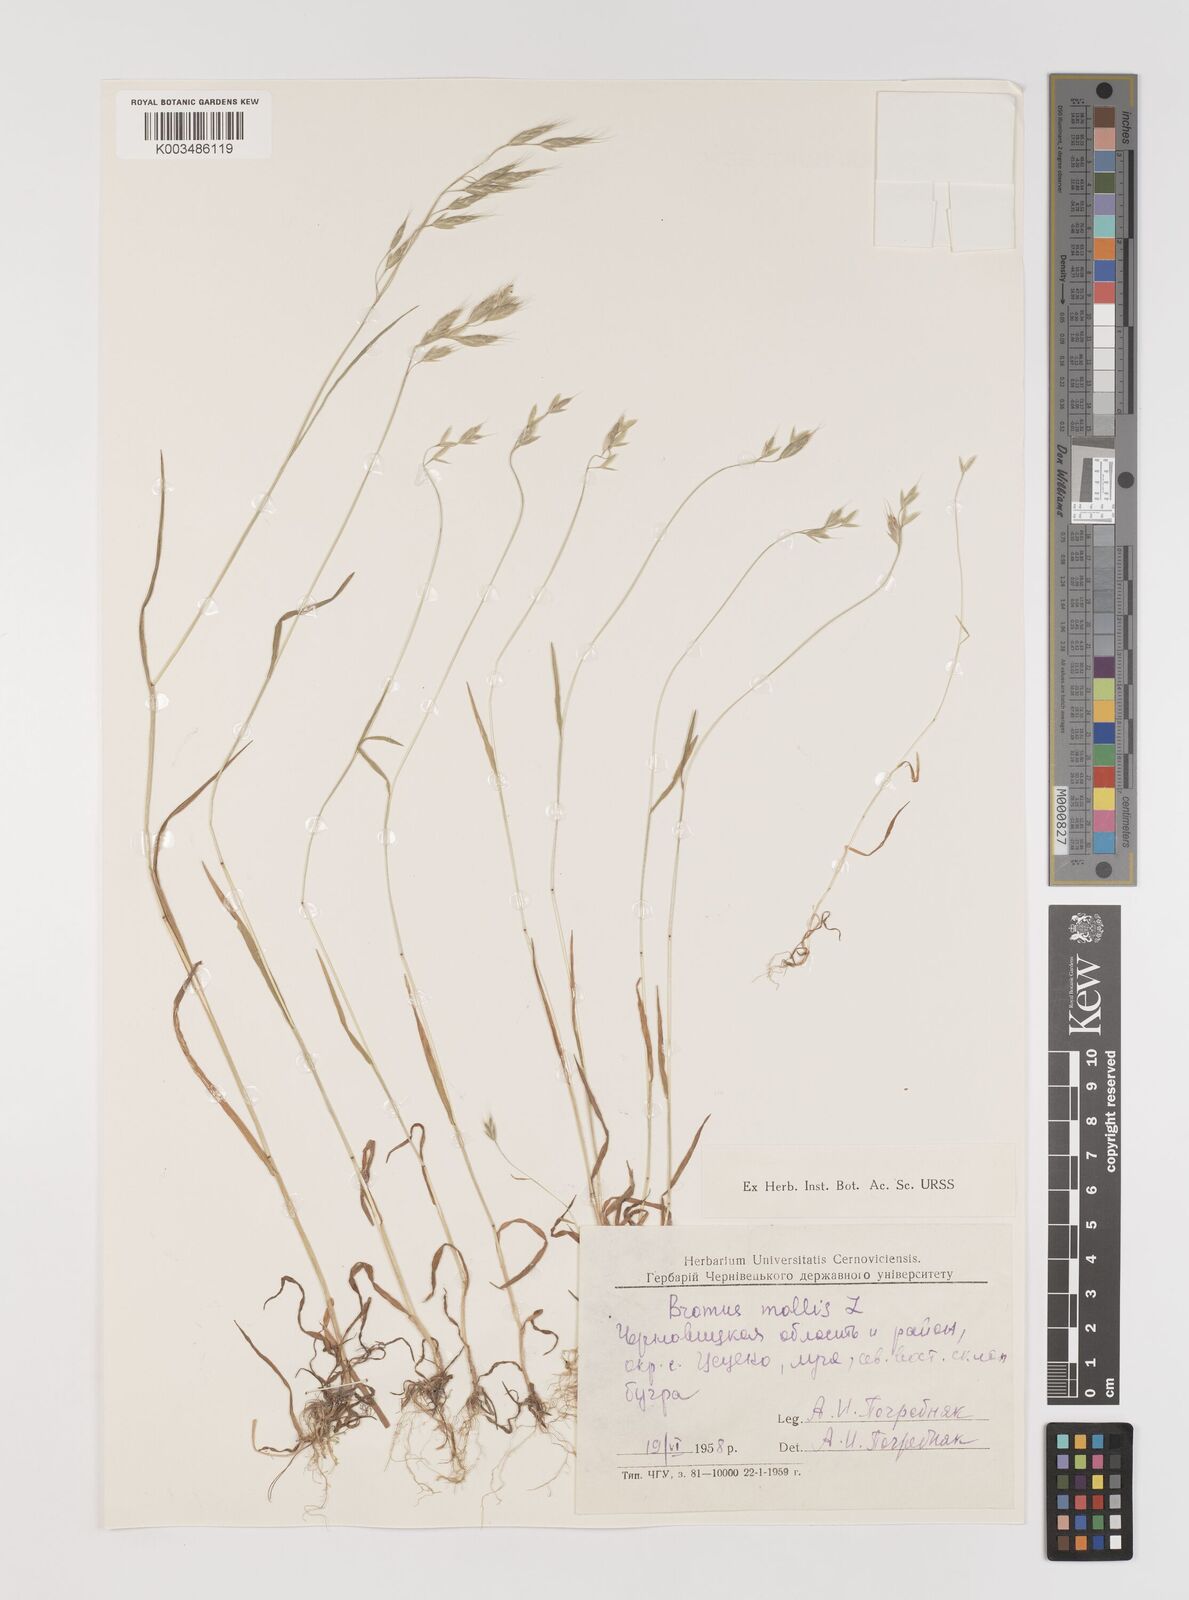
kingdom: Plantae
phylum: Tracheophyta
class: Liliopsida
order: Poales
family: Poaceae
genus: Bromus
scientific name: Bromus hordeaceus
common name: Soft brome
